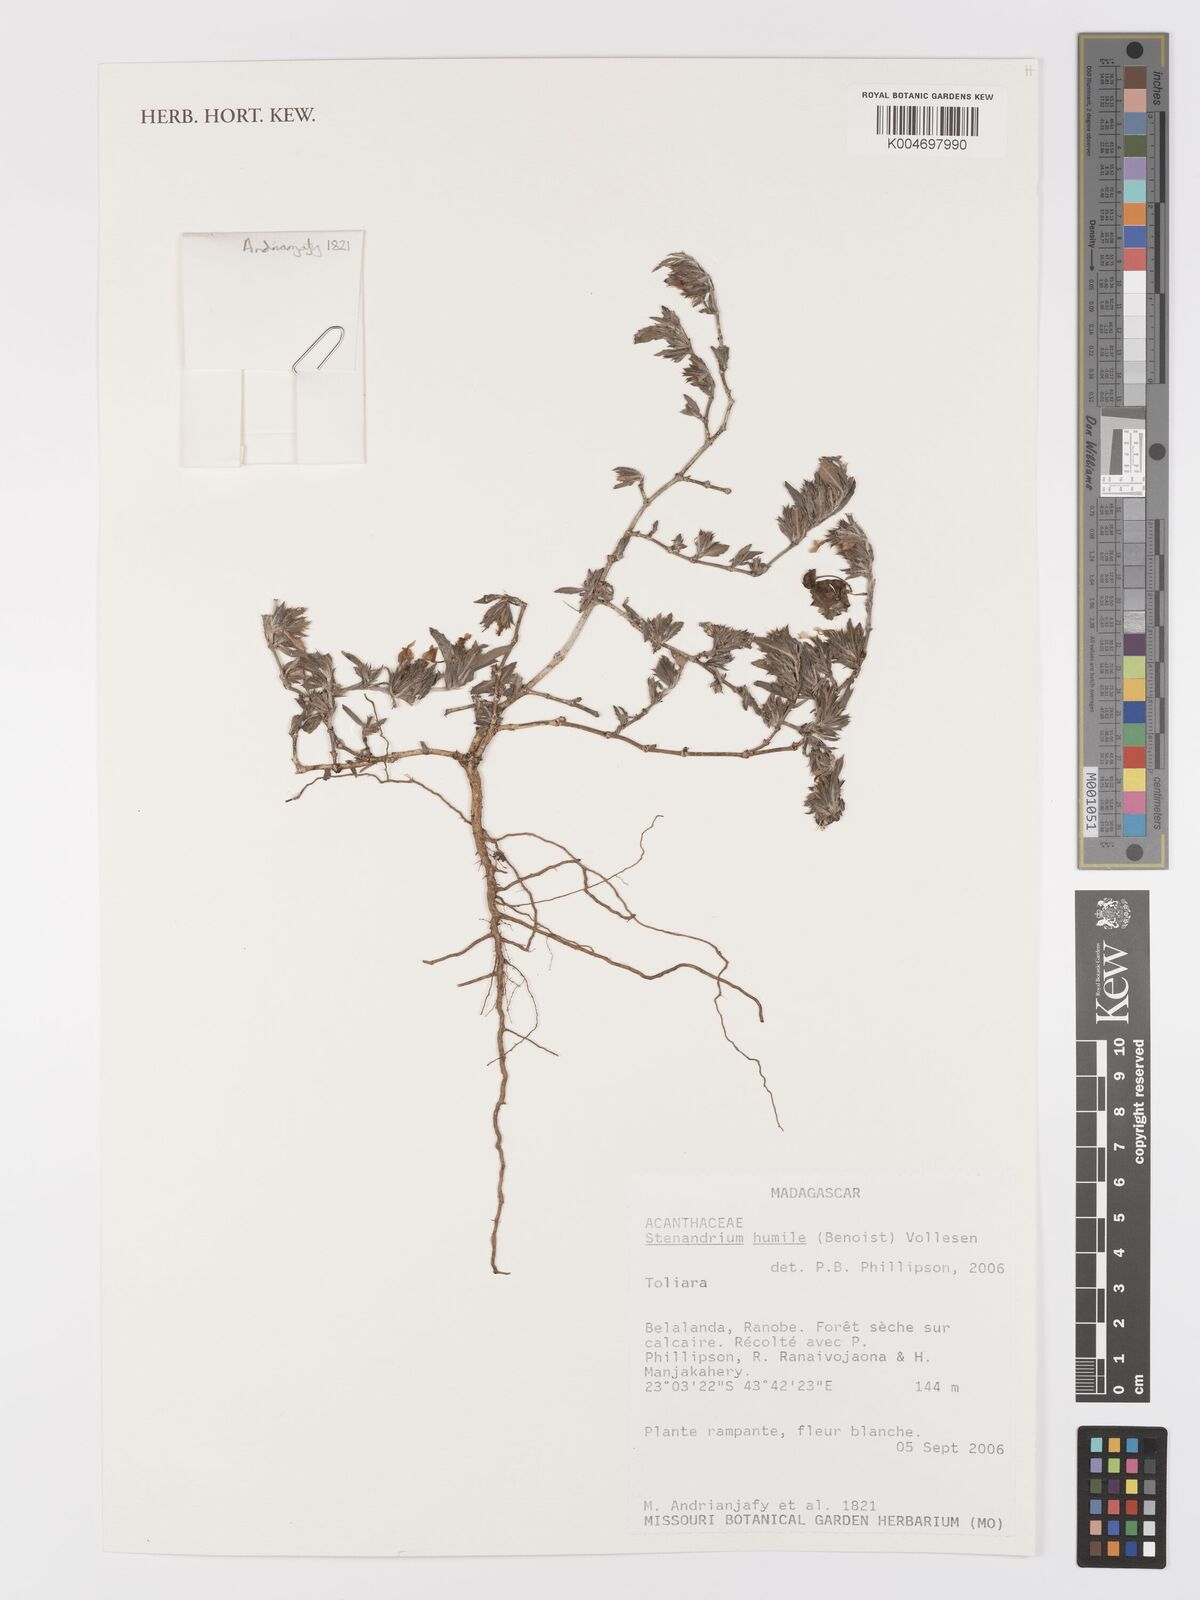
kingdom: Plantae
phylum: Tracheophyta
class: Magnoliopsida
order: Lamiales
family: Acanthaceae
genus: Stenandriopsis
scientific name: Stenandriopsis keraudrenae
